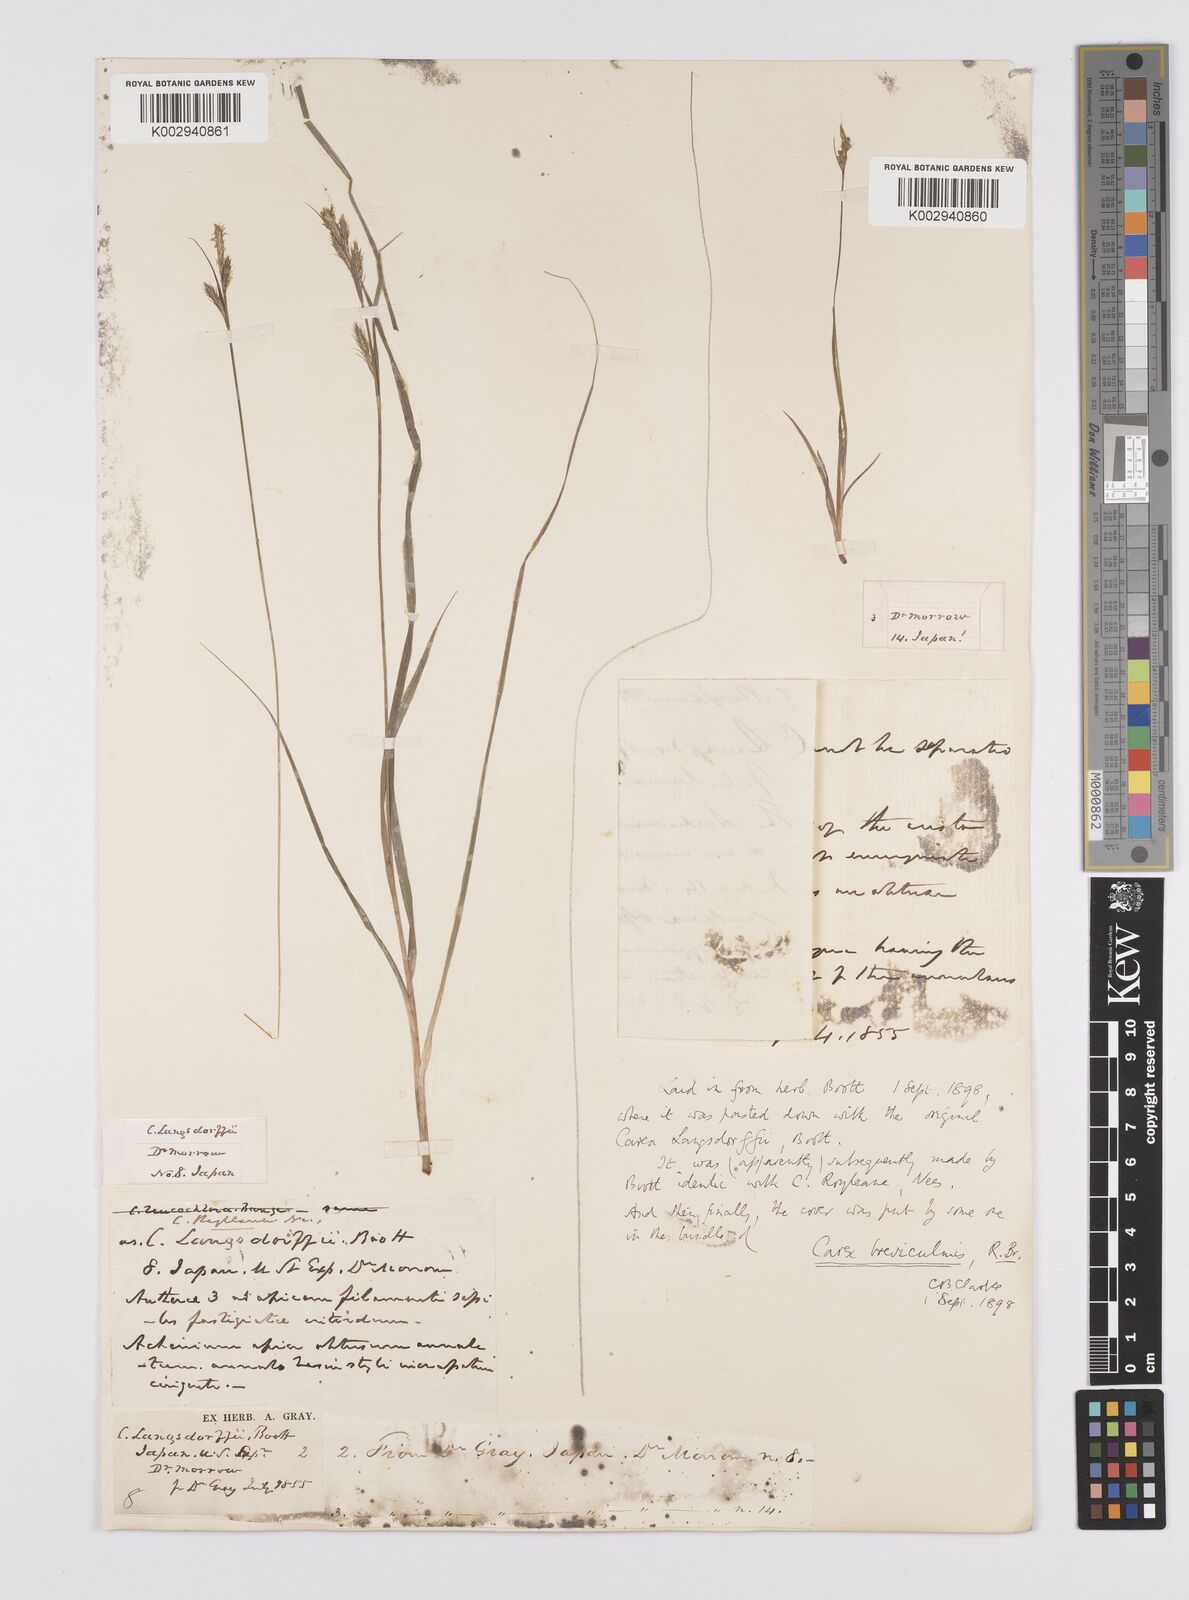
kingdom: Plantae
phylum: Tracheophyta
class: Liliopsida
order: Poales
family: Cyperaceae
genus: Carex
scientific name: Carex breviculmis
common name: Asian shortstem sedge
